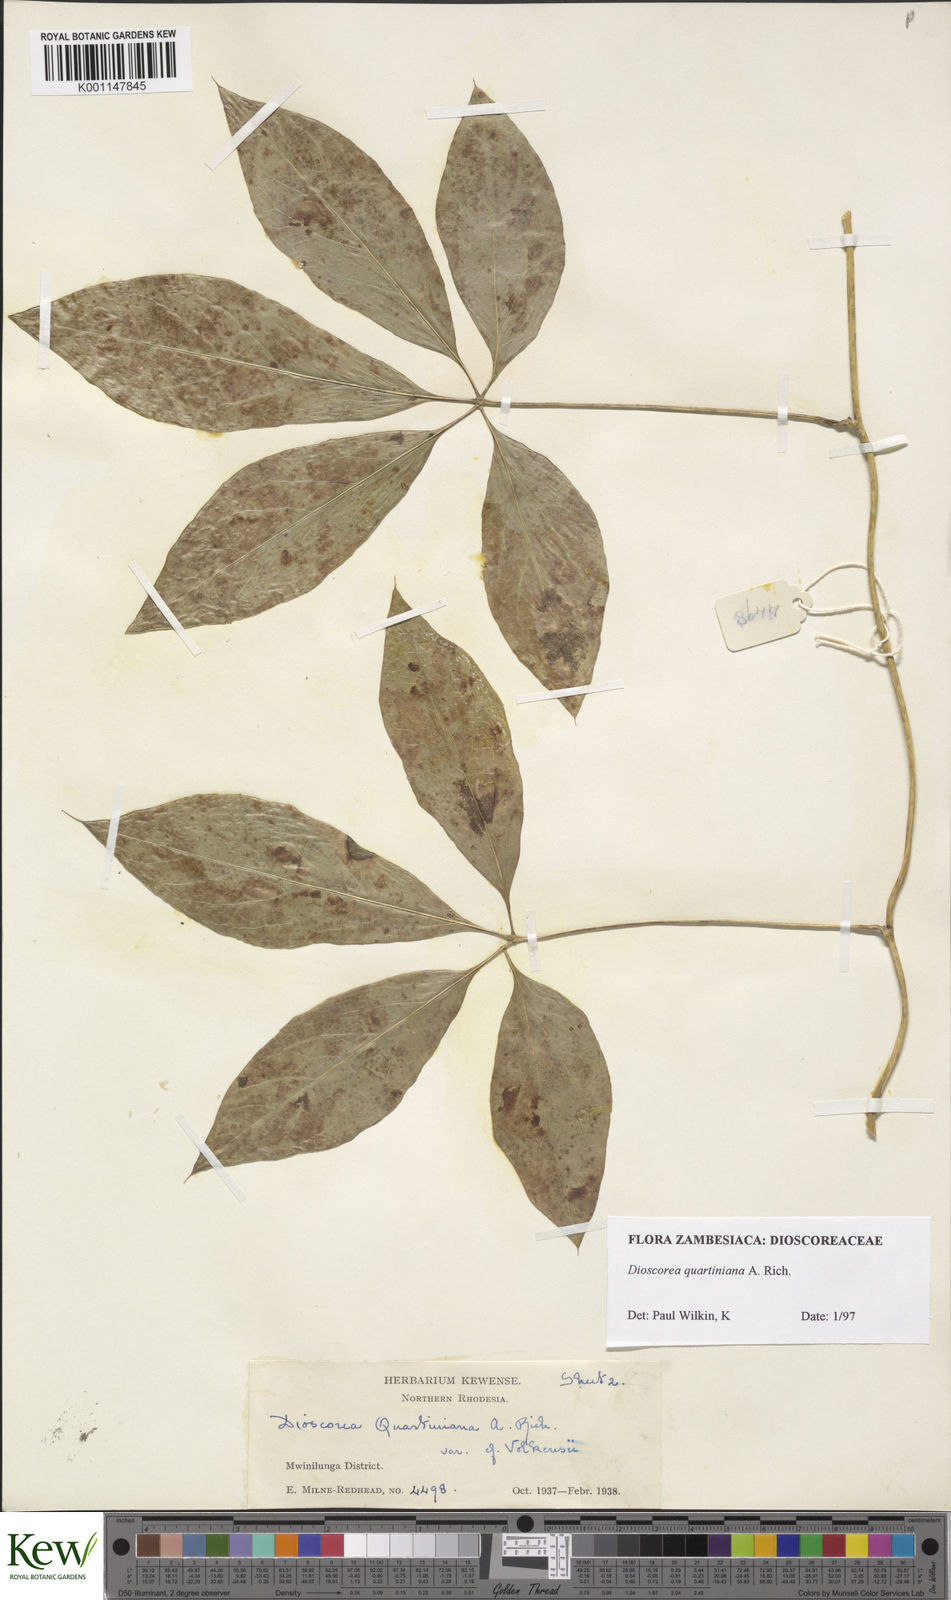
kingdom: Plantae
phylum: Tracheophyta
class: Liliopsida
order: Dioscoreales
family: Dioscoreaceae
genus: Dioscorea
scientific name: Dioscorea quartiniana
